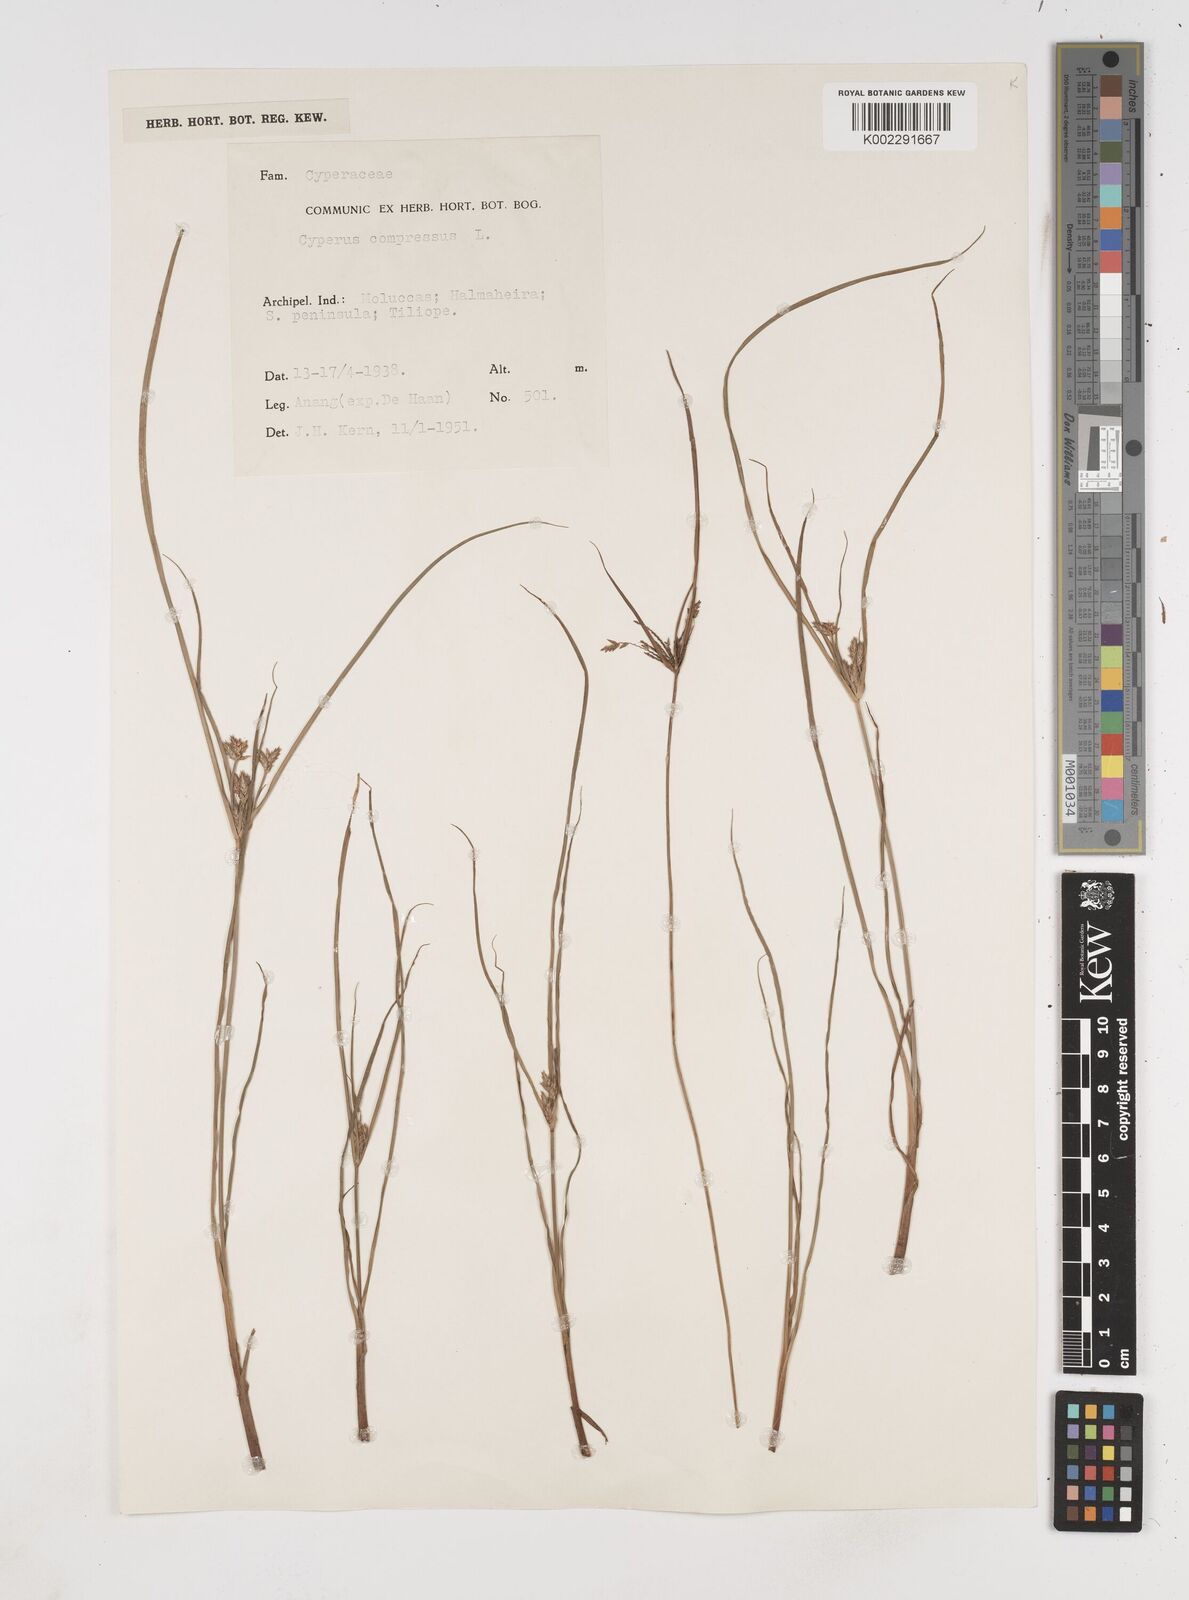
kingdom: Plantae
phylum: Tracheophyta
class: Liliopsida
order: Poales
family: Cyperaceae
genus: Cyperus
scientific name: Cyperus compressus
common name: Poorland flatsedge
